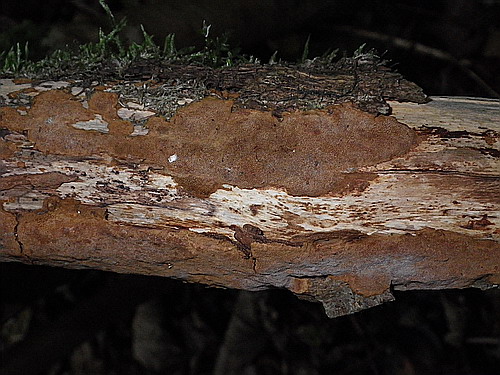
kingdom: Fungi
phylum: Basidiomycota
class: Agaricomycetes
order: Hymenochaetales
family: Hymenochaetaceae
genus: Fuscoporia
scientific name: Fuscoporia ferruginosa
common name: rustbrun ildporesvamp
